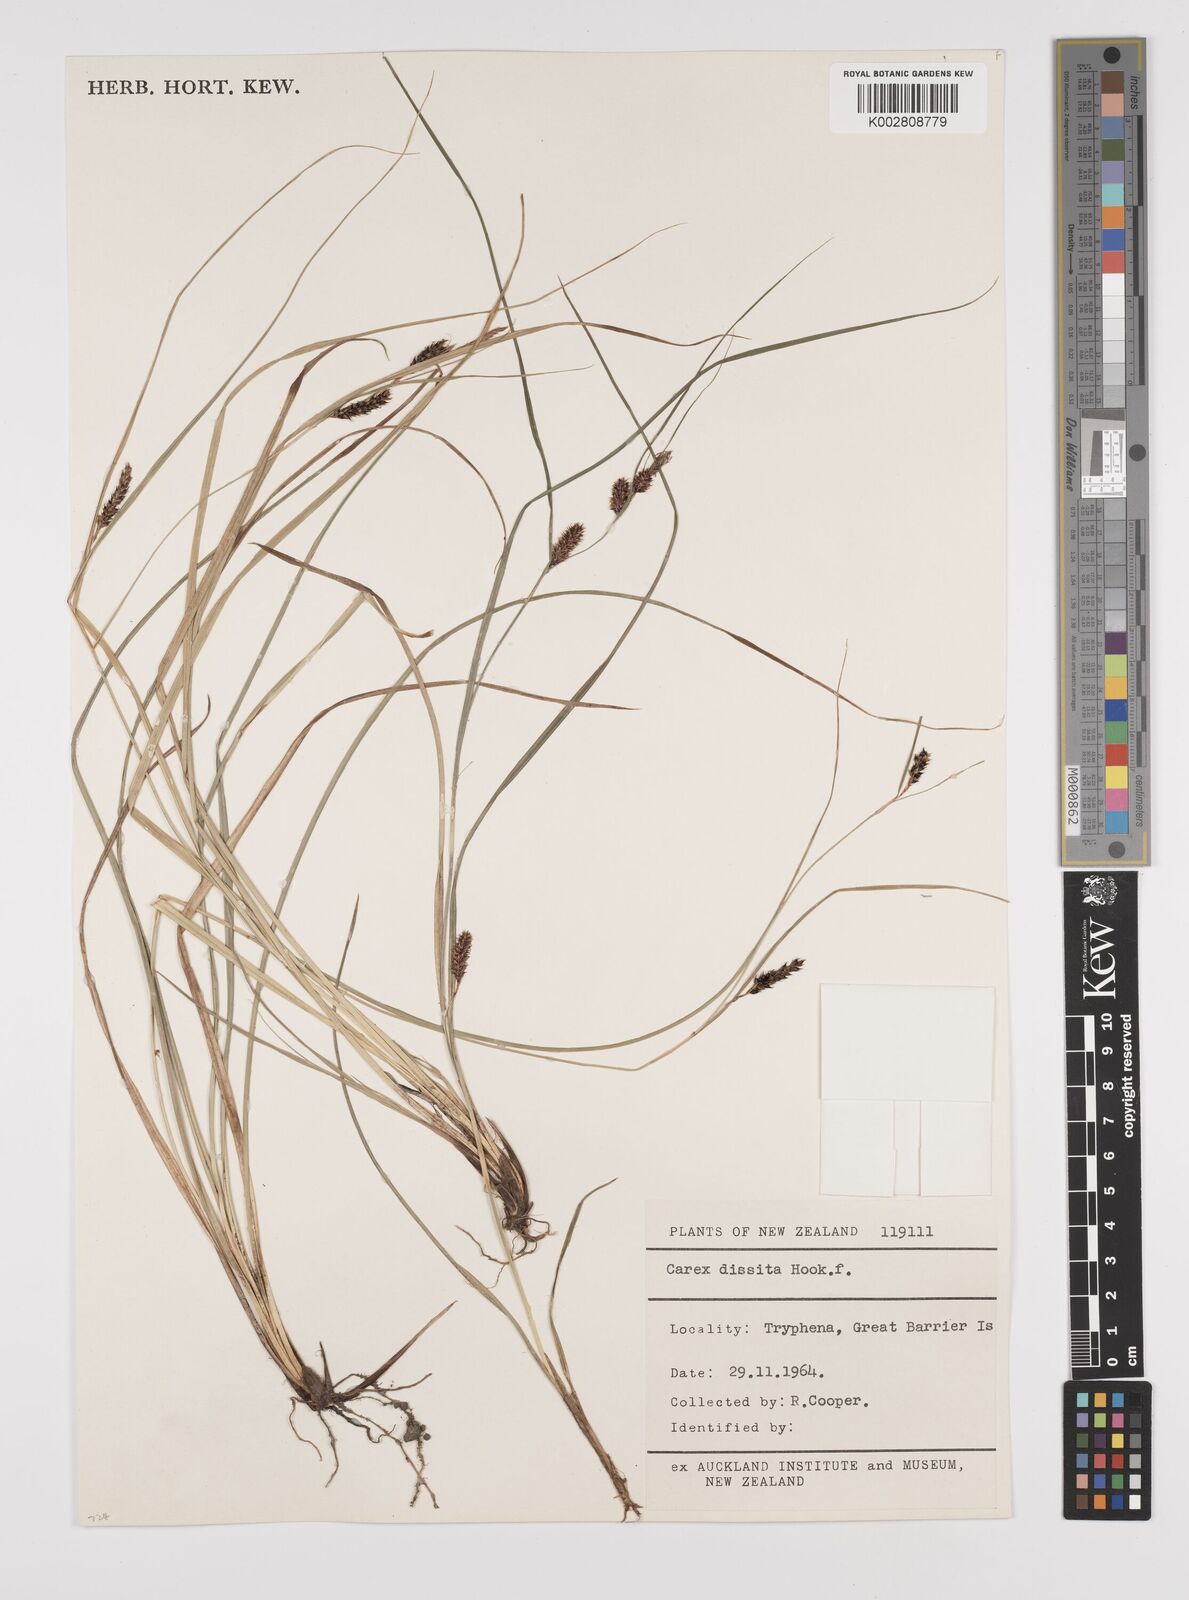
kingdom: Plantae
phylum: Tracheophyta
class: Liliopsida
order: Poales
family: Cyperaceae
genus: Carex
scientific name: Carex dissita
